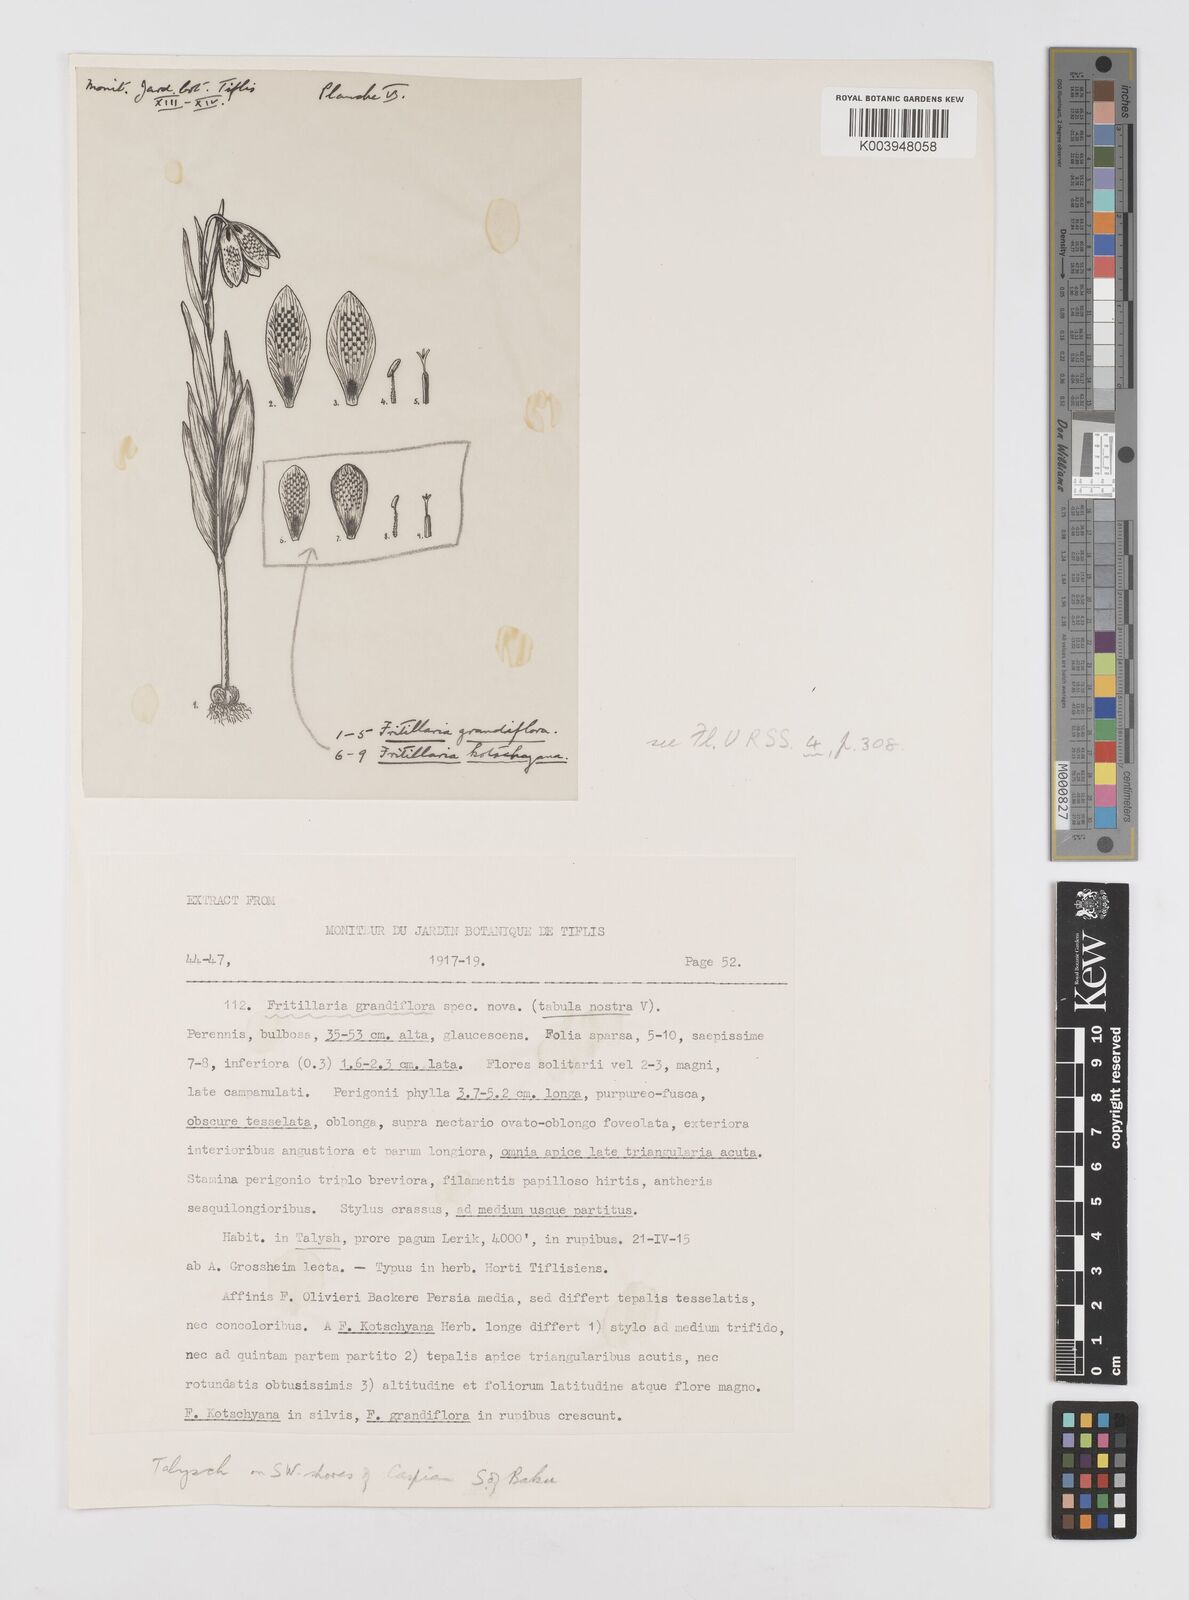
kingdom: Plantae
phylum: Tracheophyta
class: Liliopsida
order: Liliales
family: Liliaceae
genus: Fritillaria
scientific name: Fritillaria olivieri
